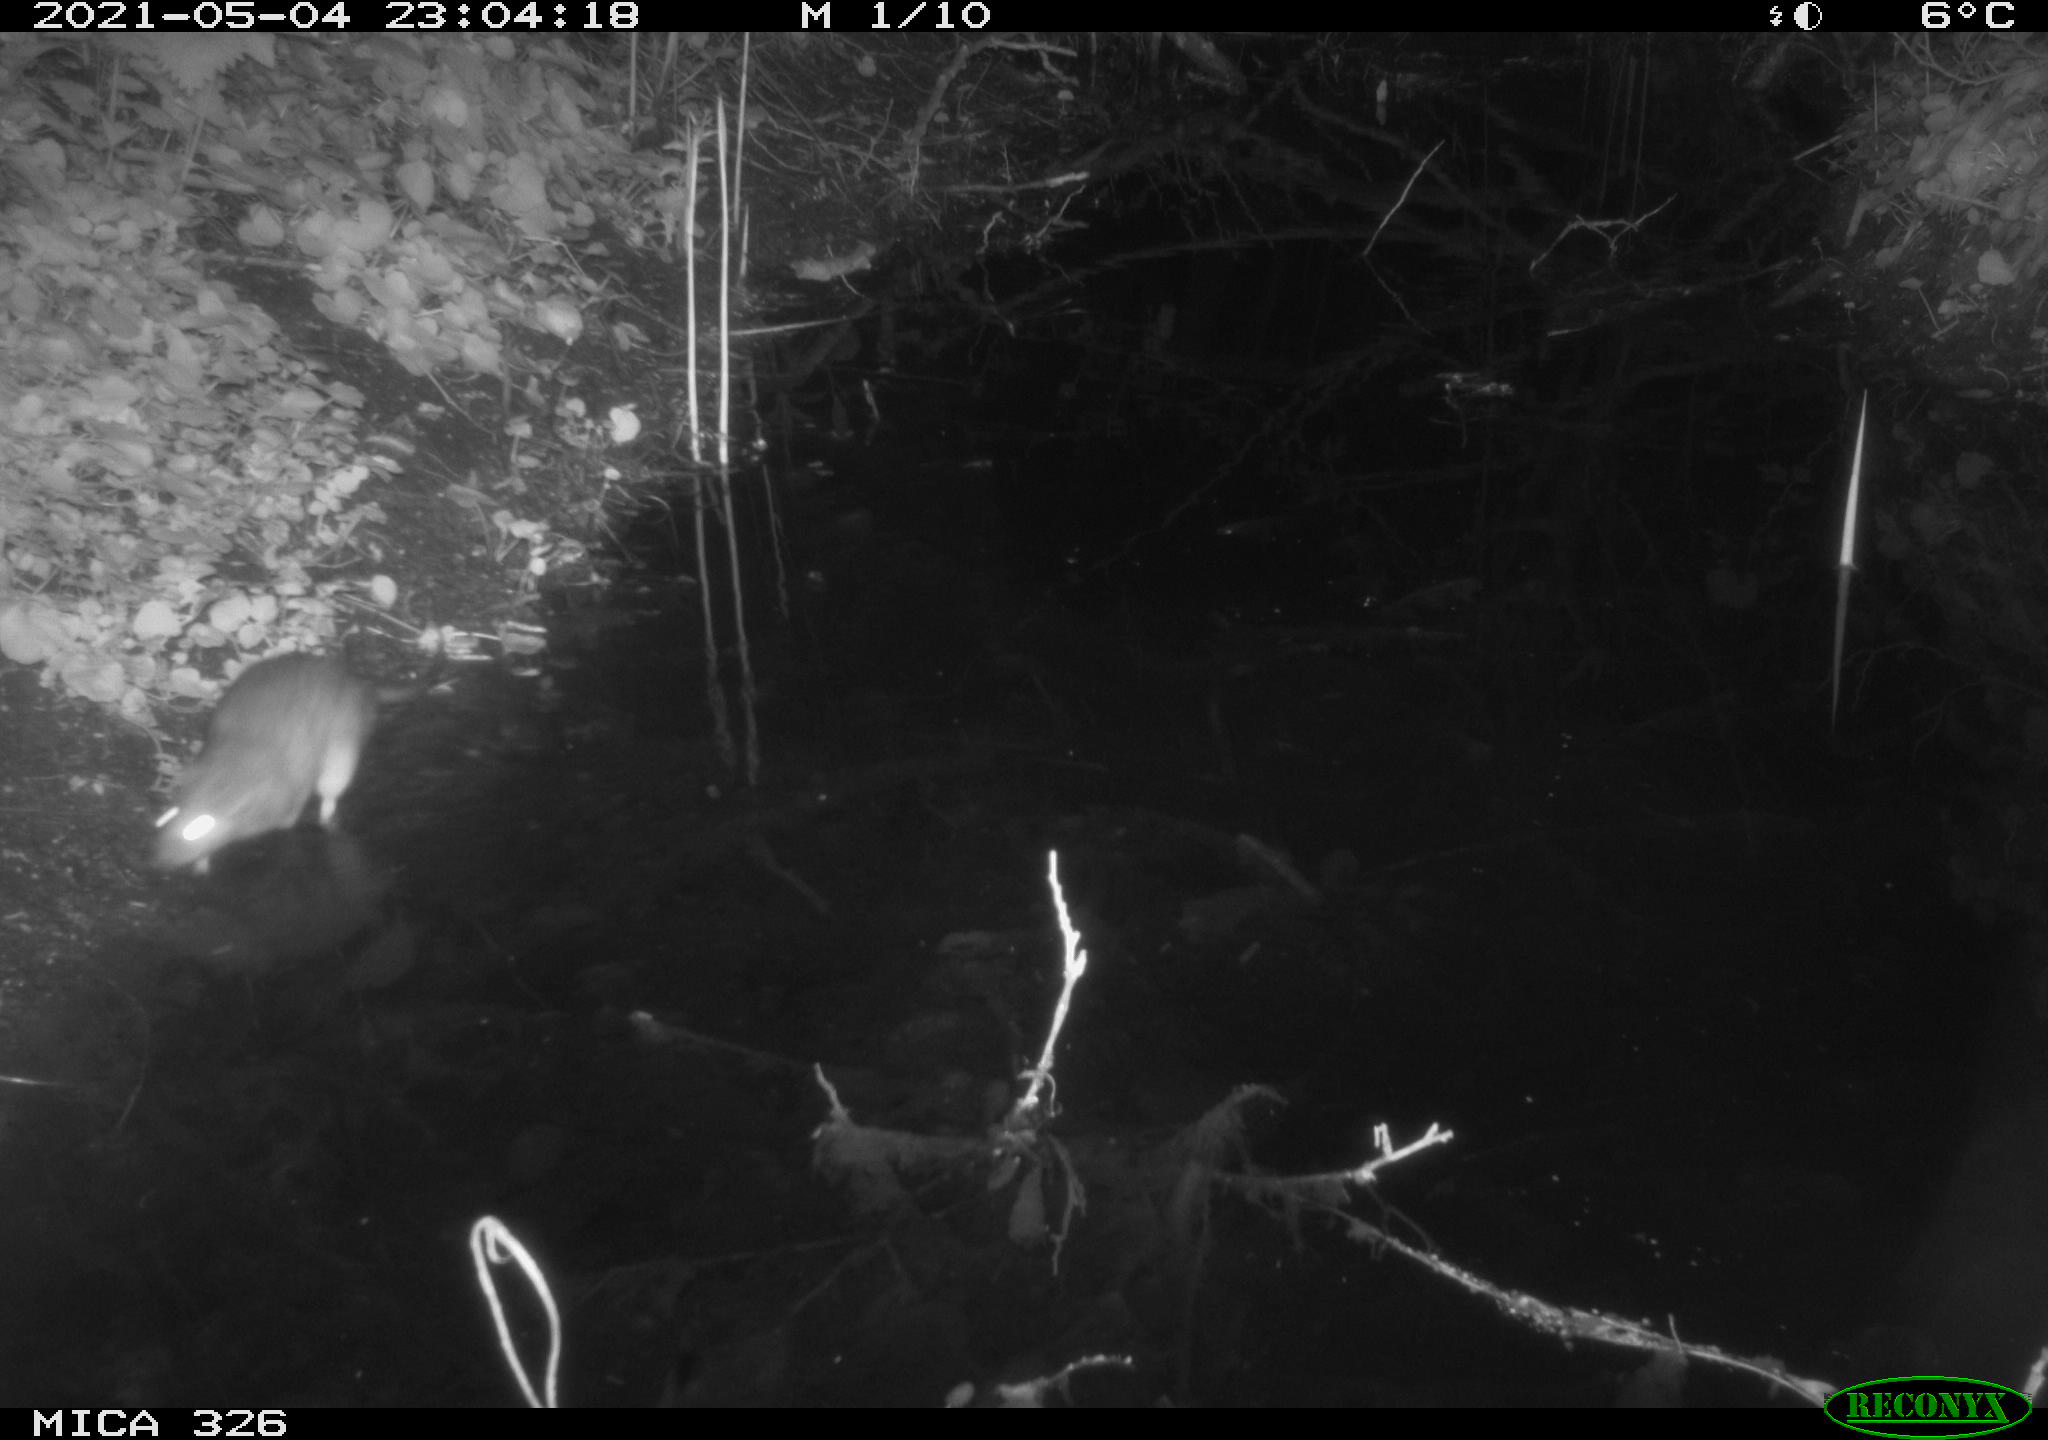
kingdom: Animalia
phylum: Chordata
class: Mammalia
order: Rodentia
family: Muridae
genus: Rattus
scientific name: Rattus norvegicus
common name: Brown rat
